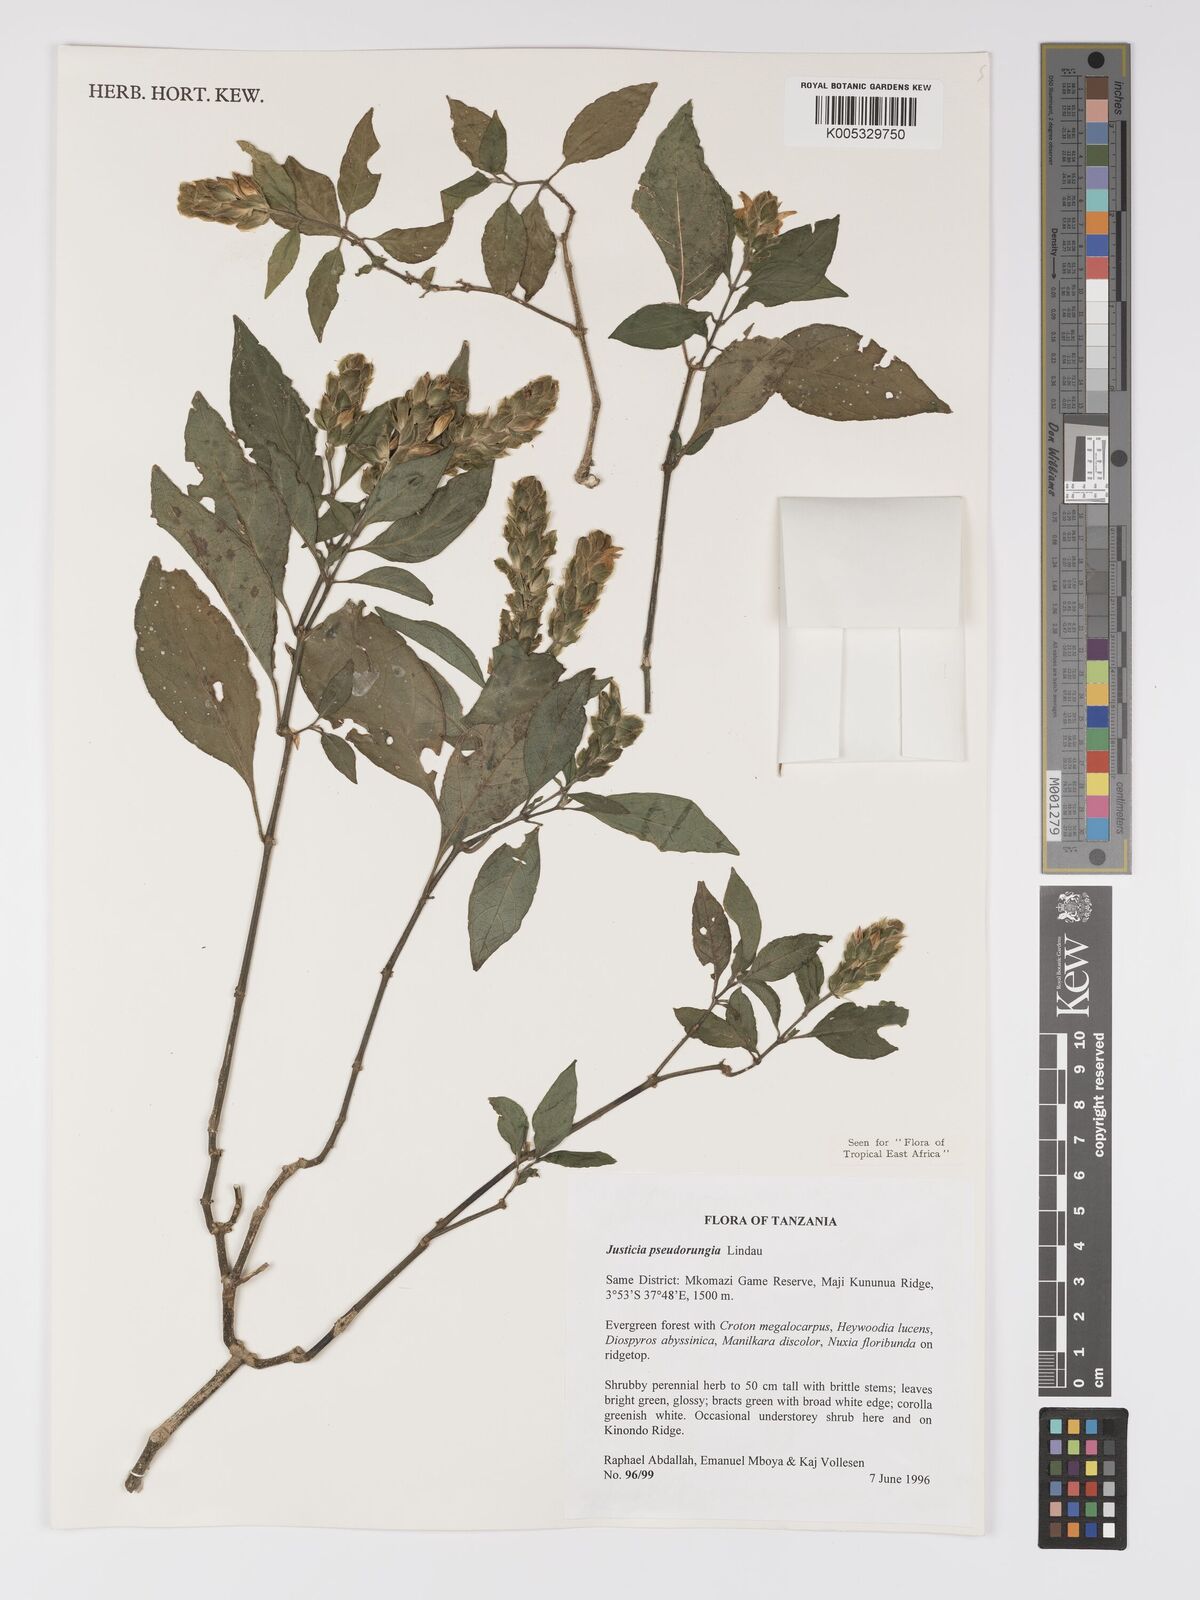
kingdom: Plantae
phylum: Tracheophyta
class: Magnoliopsida
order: Lamiales
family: Acanthaceae
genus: Justicia
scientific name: Justicia pseudorungia
